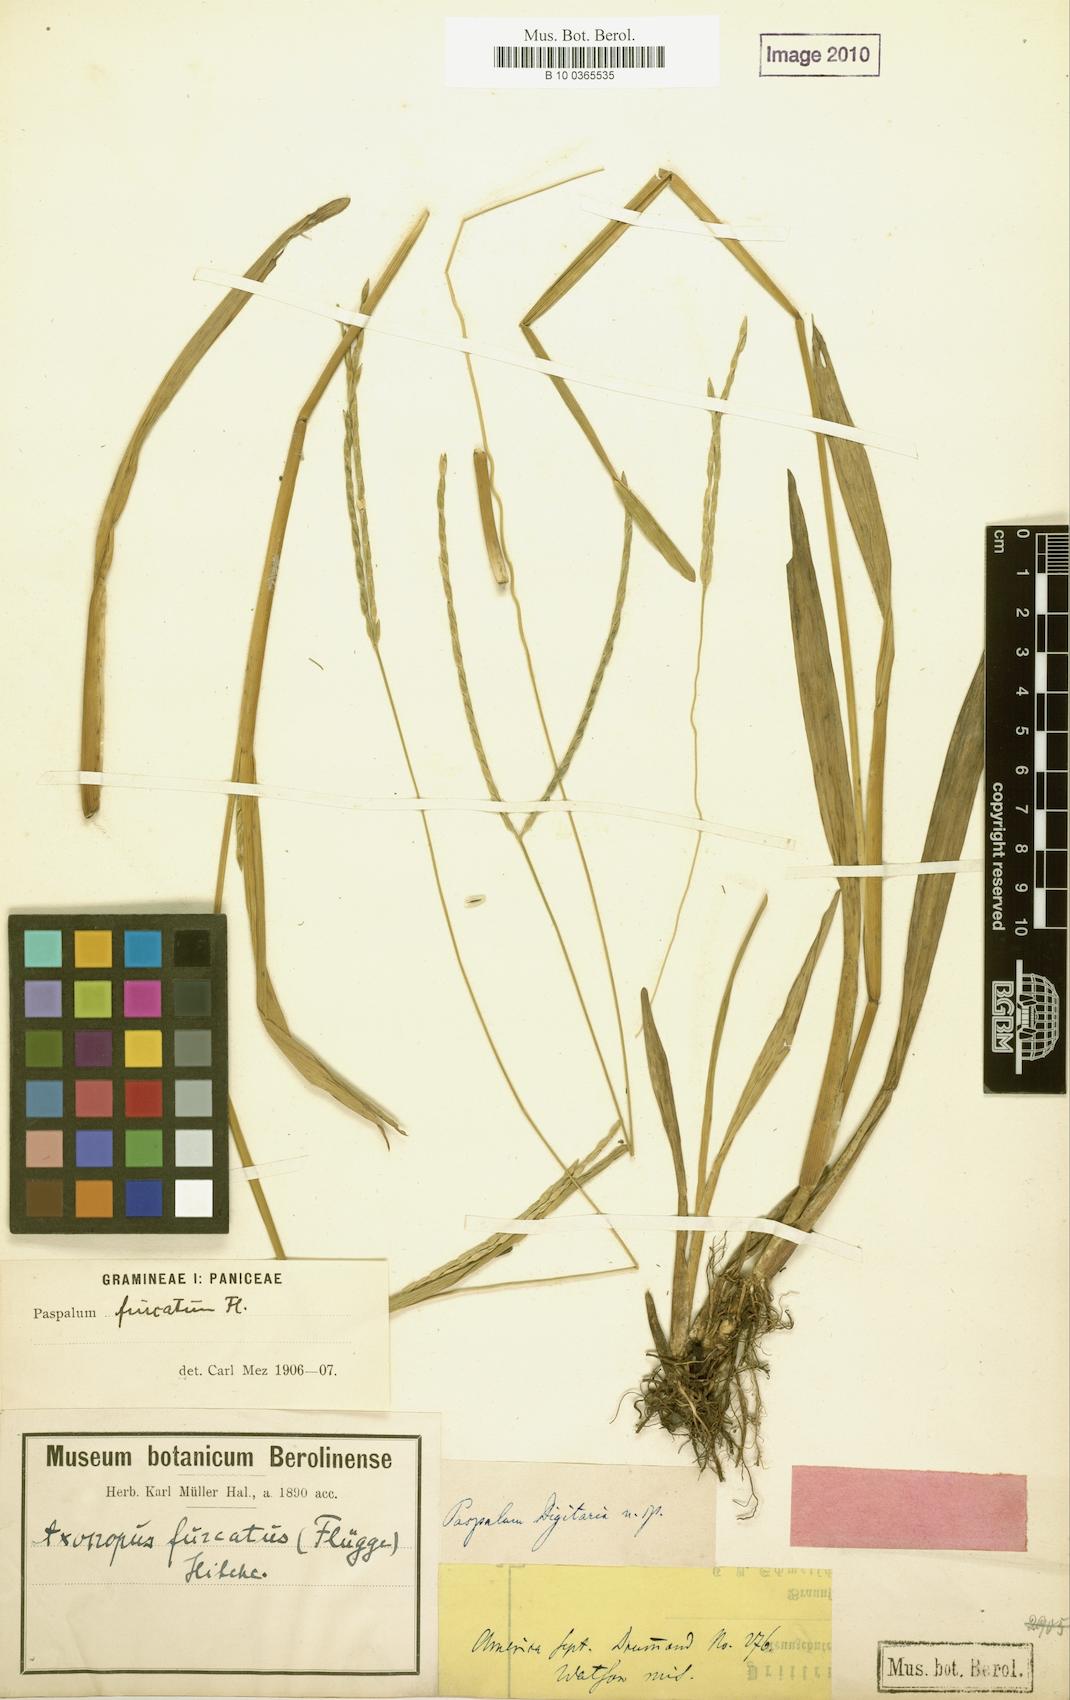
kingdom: Plantae
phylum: Tracheophyta
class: Liliopsida
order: Poales
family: Poaceae
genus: Paspalum
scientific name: Paspalum distichum
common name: Knotgrass
